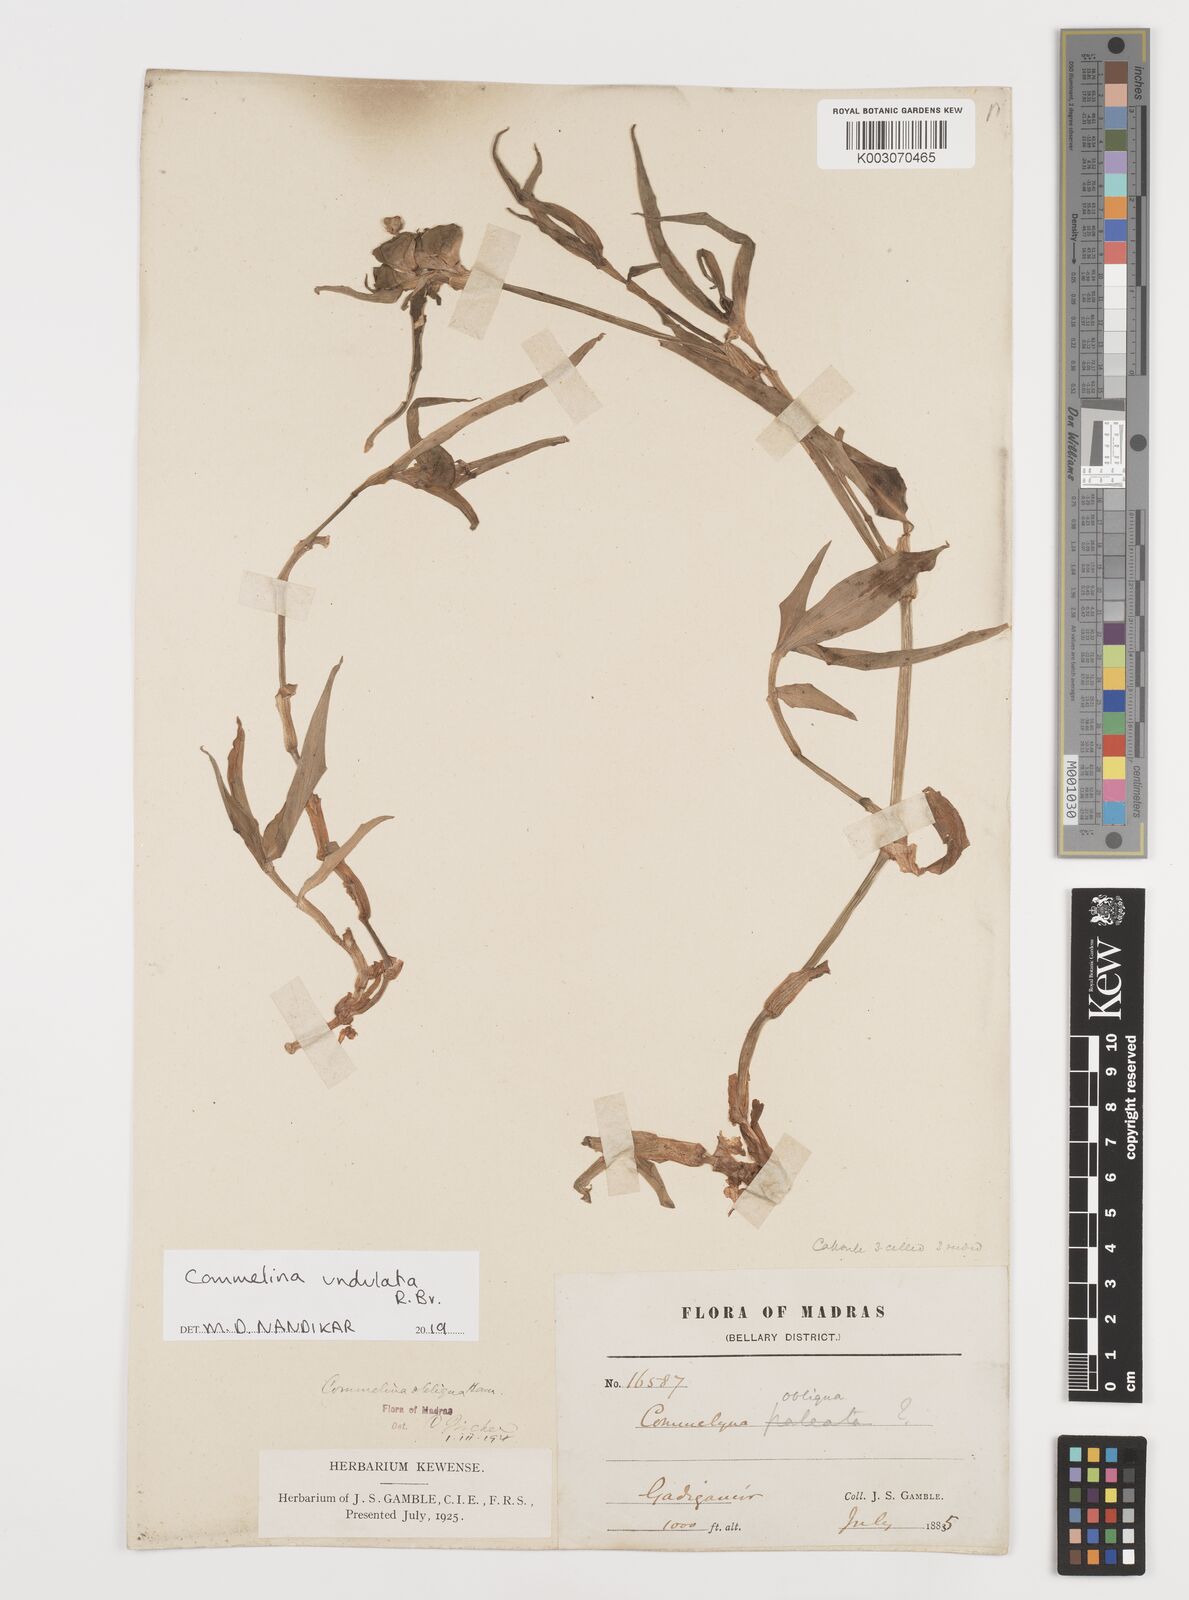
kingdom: Plantae
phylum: Tracheophyta
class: Liliopsida
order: Commelinales
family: Commelinaceae
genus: Commelina
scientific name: Commelina undulata
